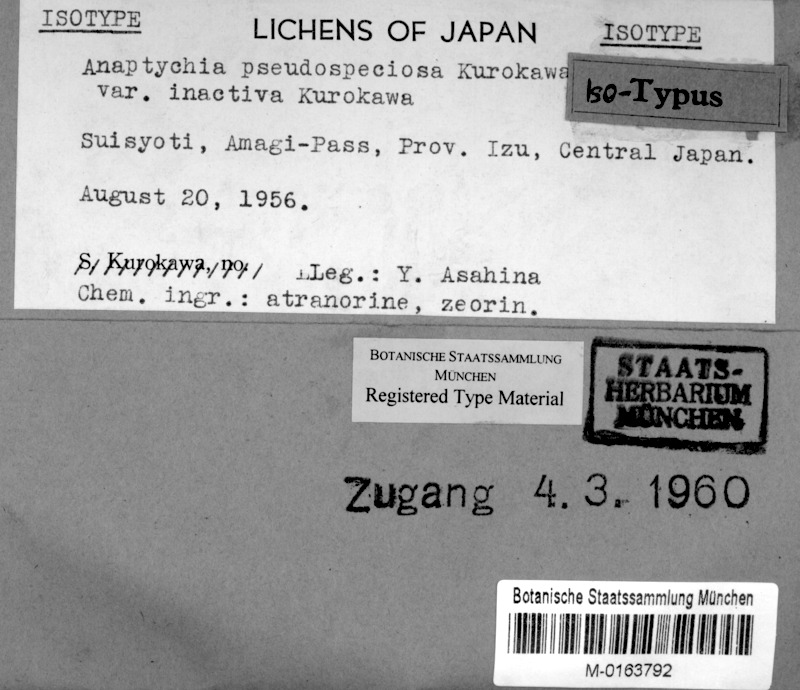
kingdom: Fungi
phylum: Ascomycota
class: Lecanoromycetes
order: Caliciales
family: Physciaceae
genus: Heterodermia
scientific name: Heterodermia speciosa
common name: Powdered fringe lichen
